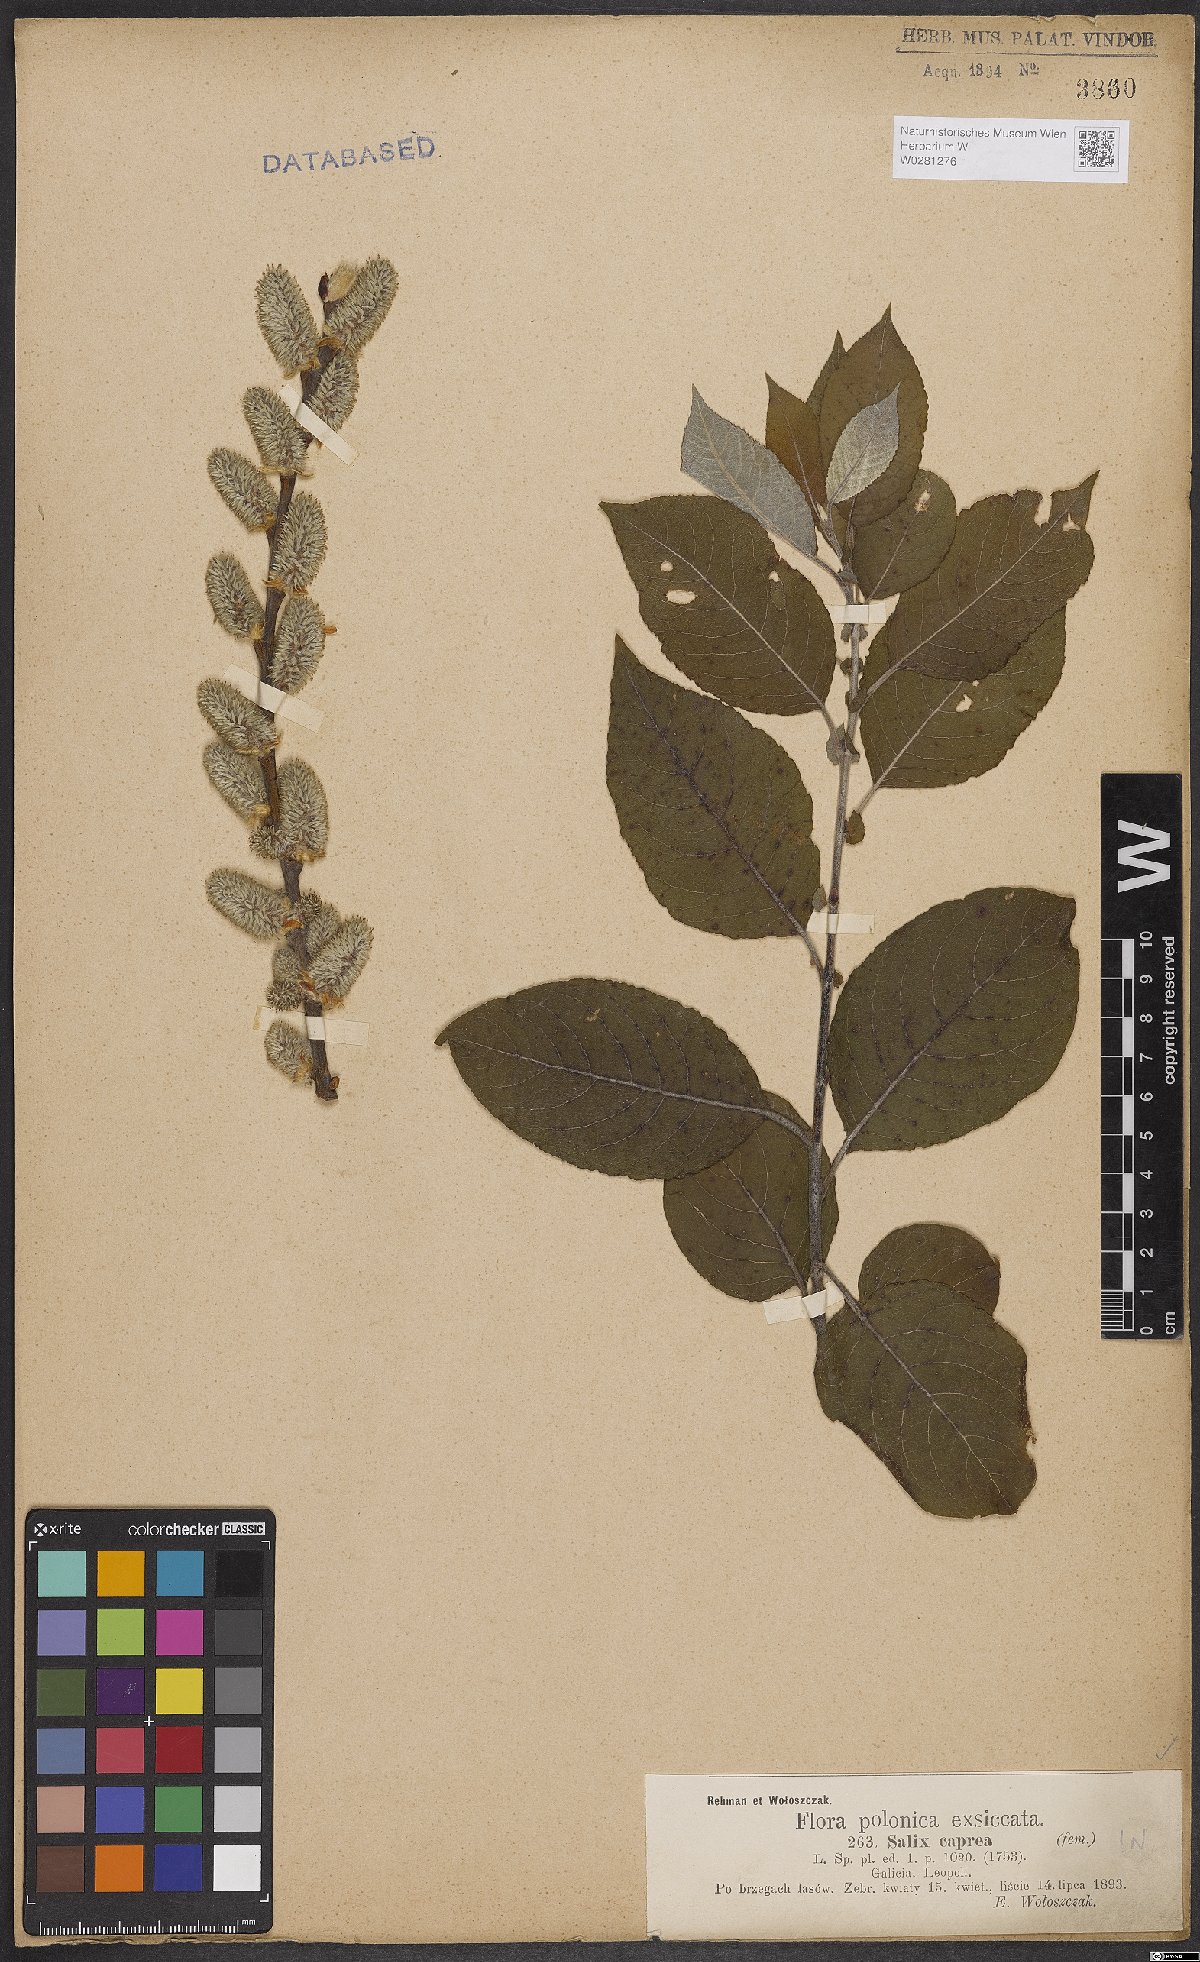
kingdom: Plantae
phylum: Tracheophyta
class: Magnoliopsida
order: Malpighiales
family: Salicaceae
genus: Salix
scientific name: Salix caprea
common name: Goat willow
